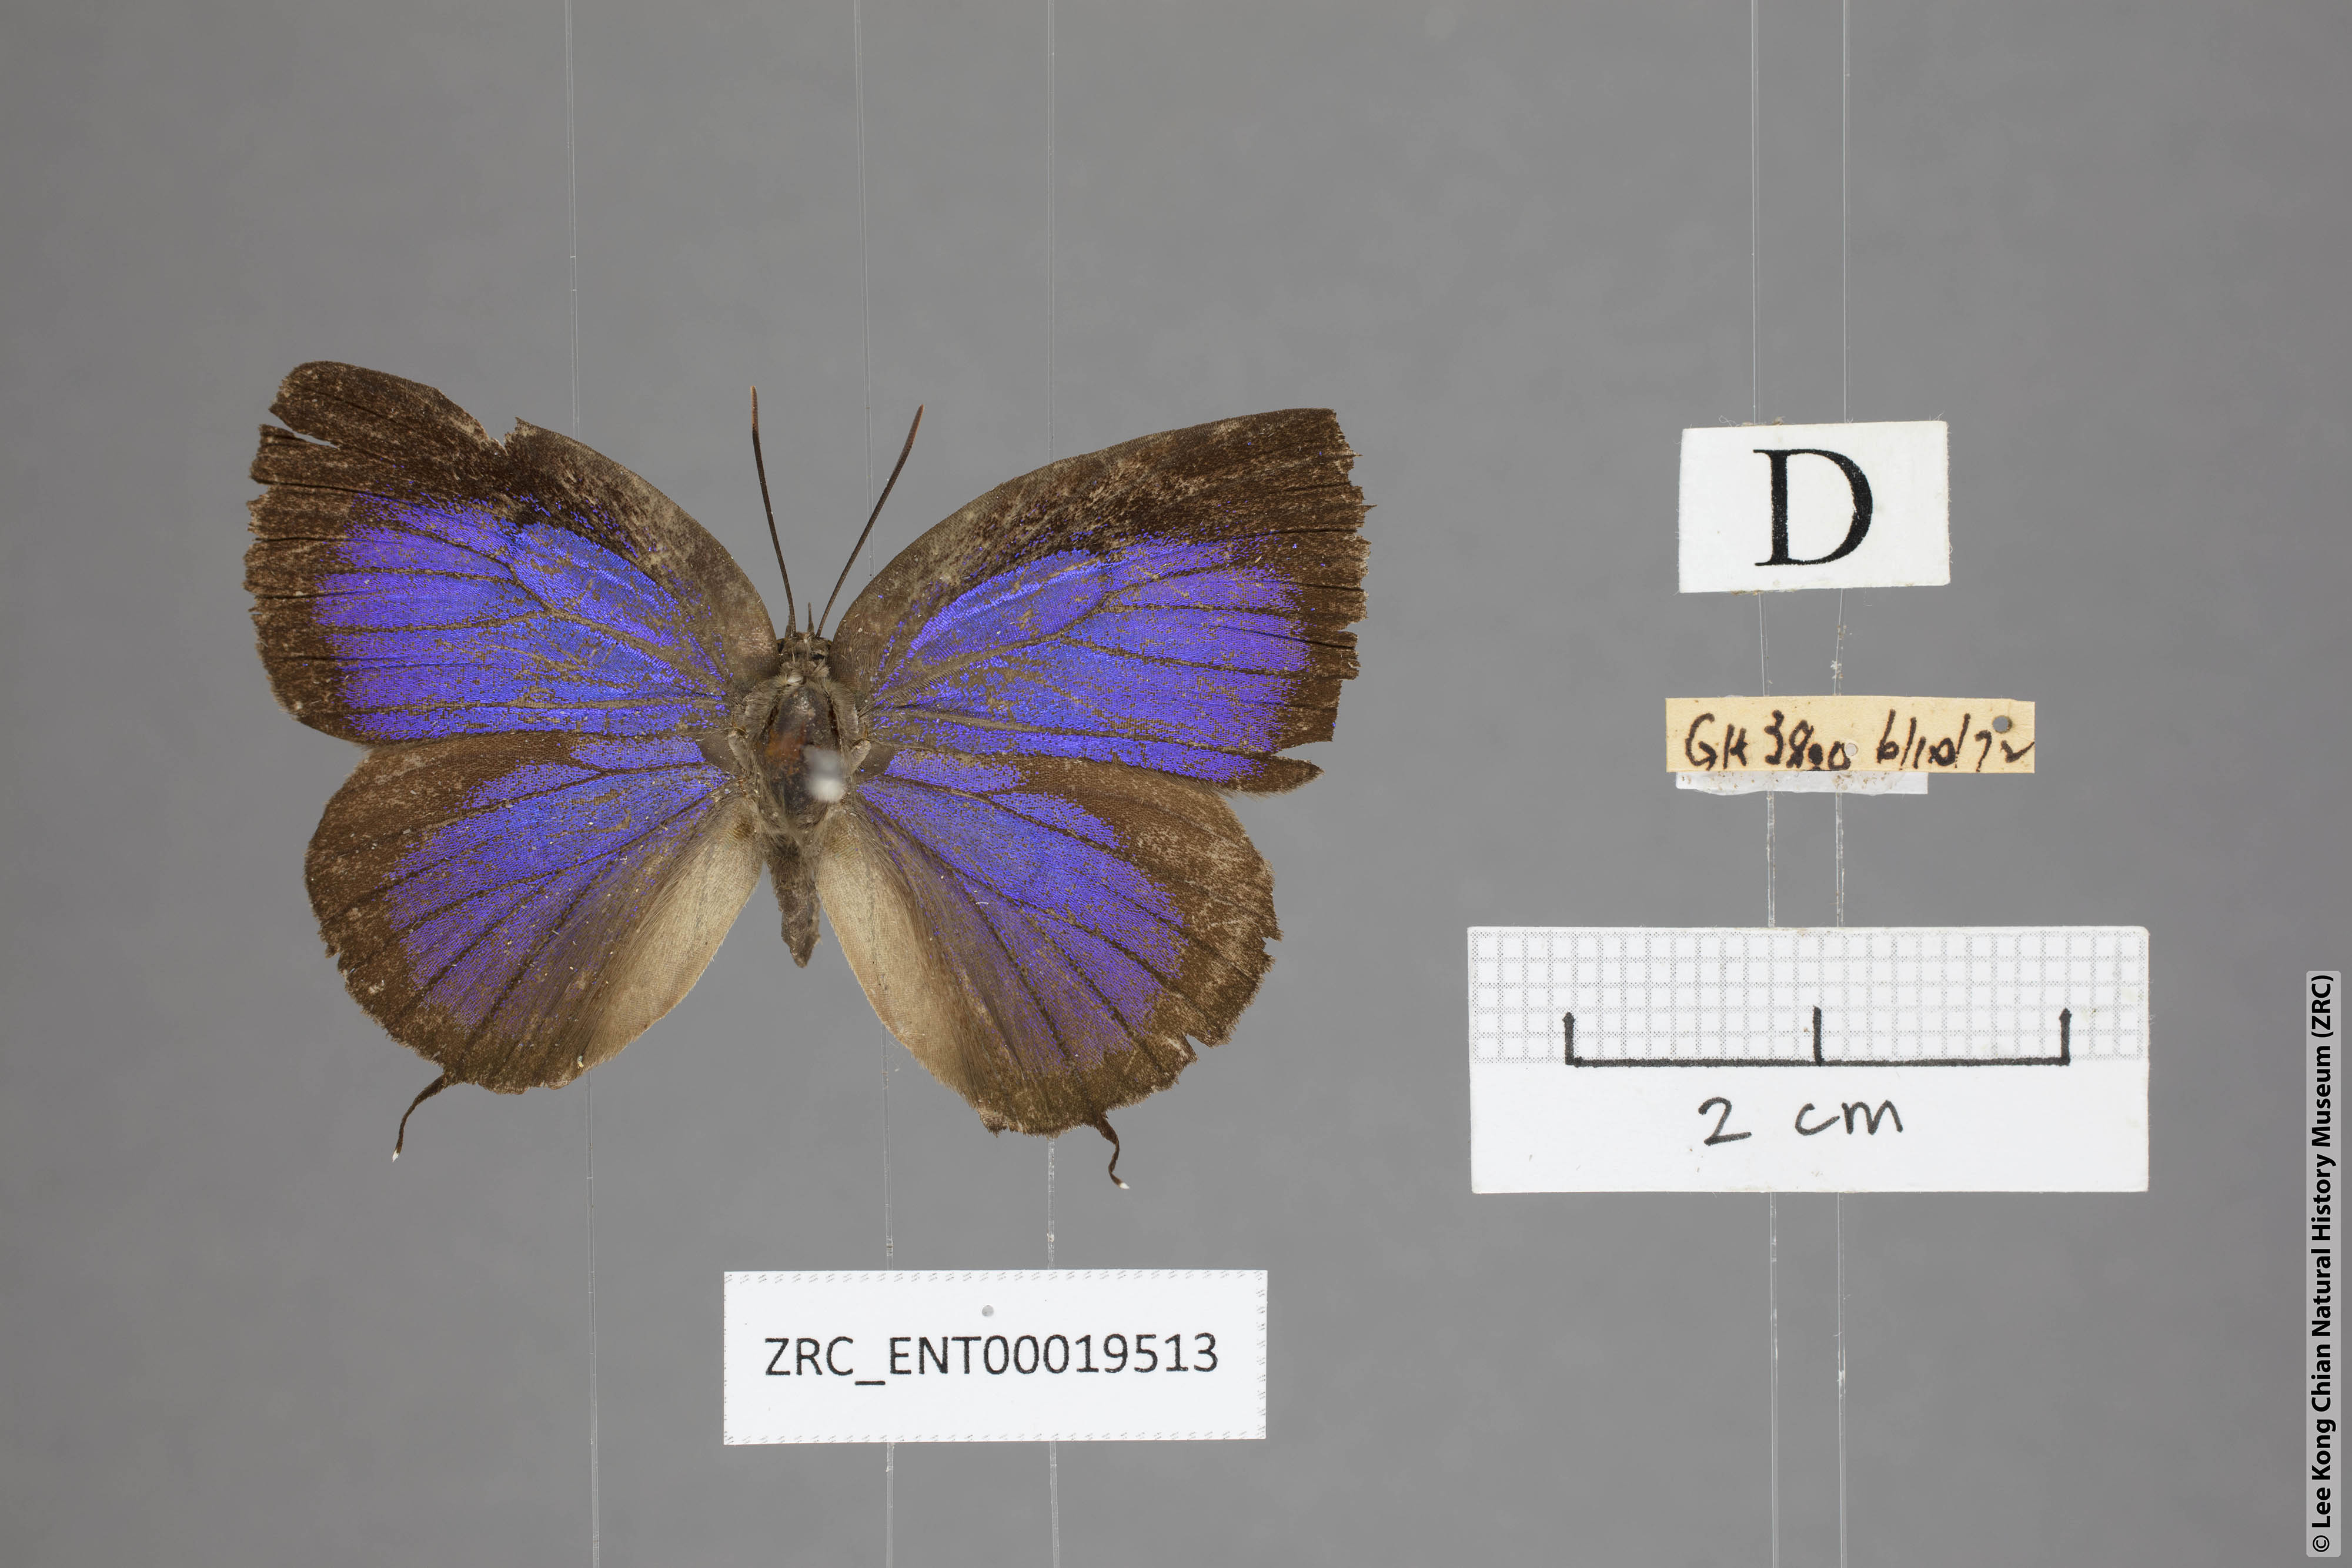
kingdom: Animalia
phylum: Arthropoda
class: Insecta
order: Lepidoptera
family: Lycaenidae
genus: Arhopala
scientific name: Arhopala hellenore
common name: Doherty's green oakblue
